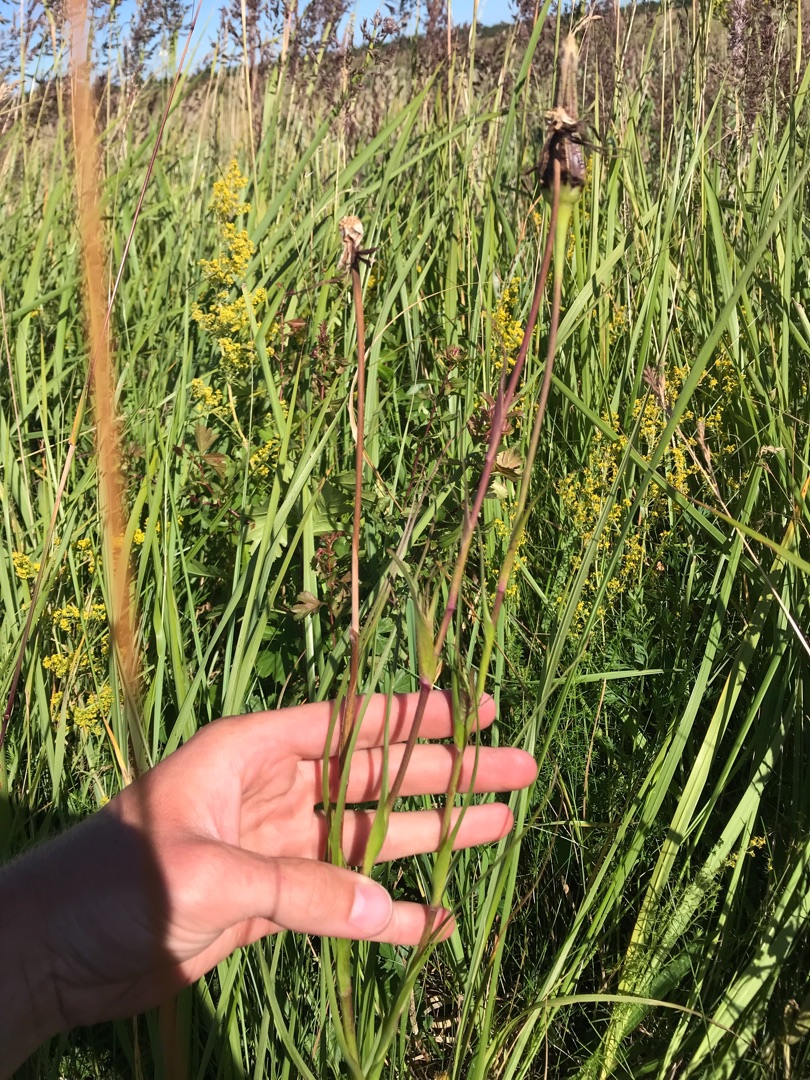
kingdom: Plantae
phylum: Tracheophyta
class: Magnoliopsida
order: Asterales
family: Asteraceae
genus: Tragopogon
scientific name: Tragopogon pratensis
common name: Gedeskæg
